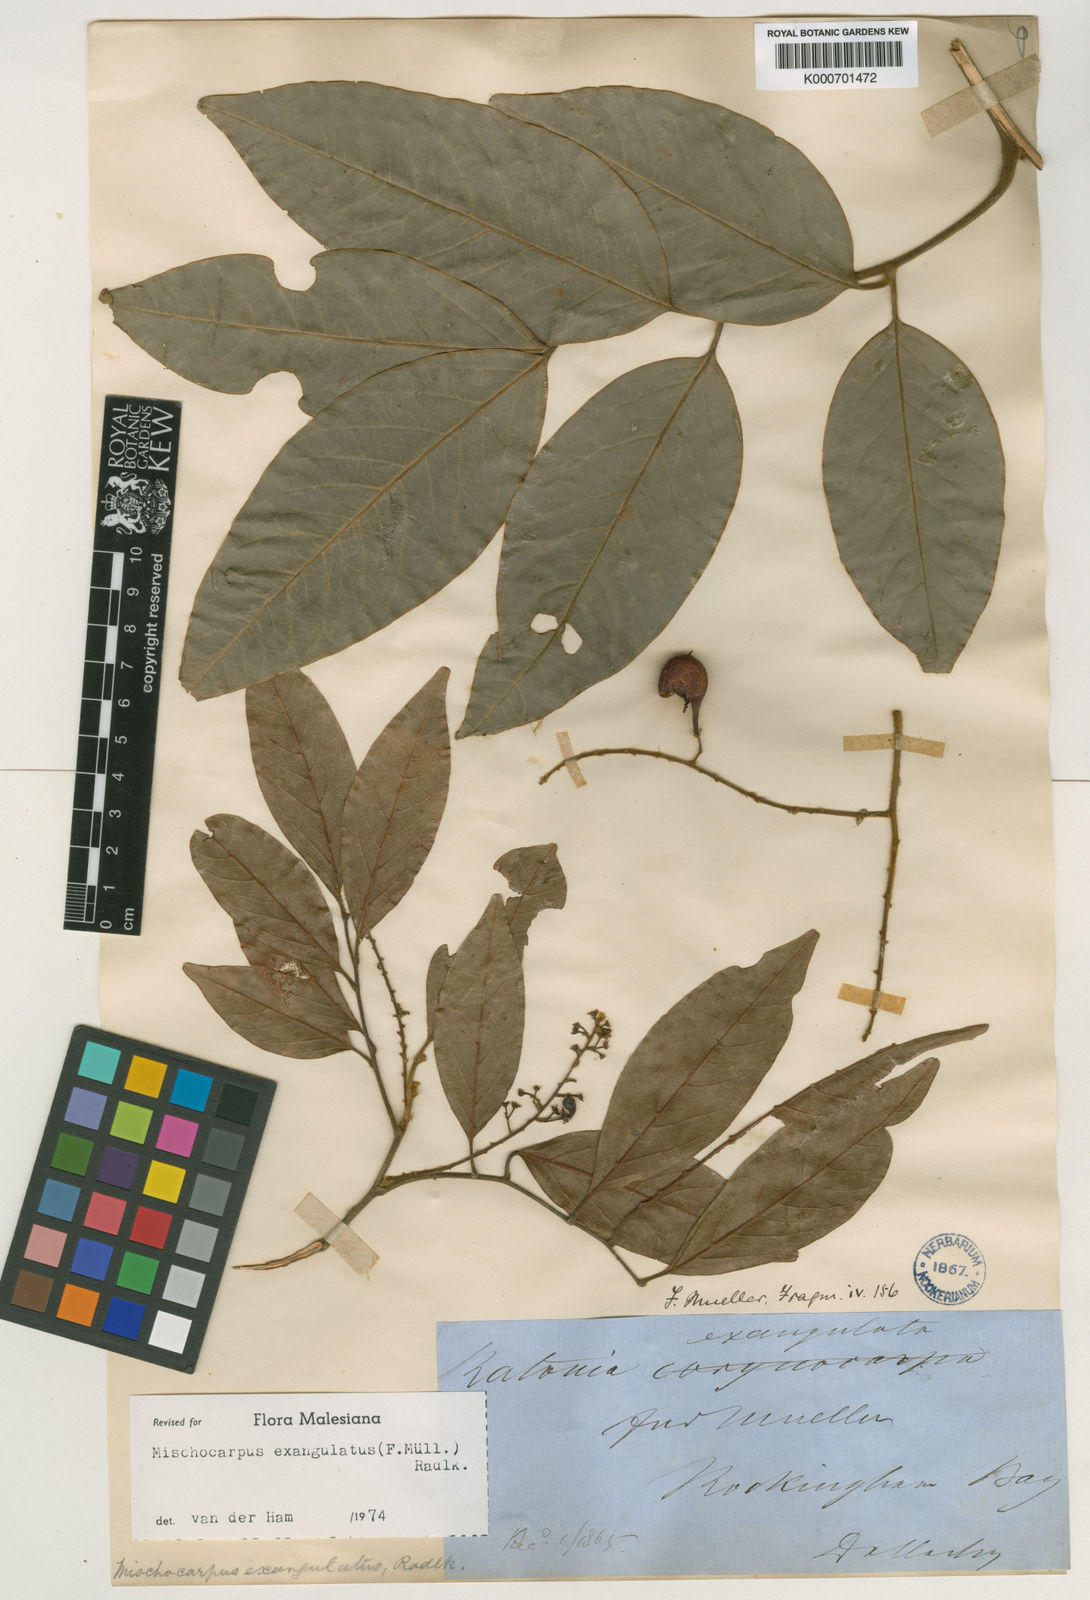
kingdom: Plantae
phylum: Tracheophyta
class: Magnoliopsida
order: Sapindales
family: Sapindaceae
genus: Mischocarpus
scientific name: Mischocarpus exangulatus
